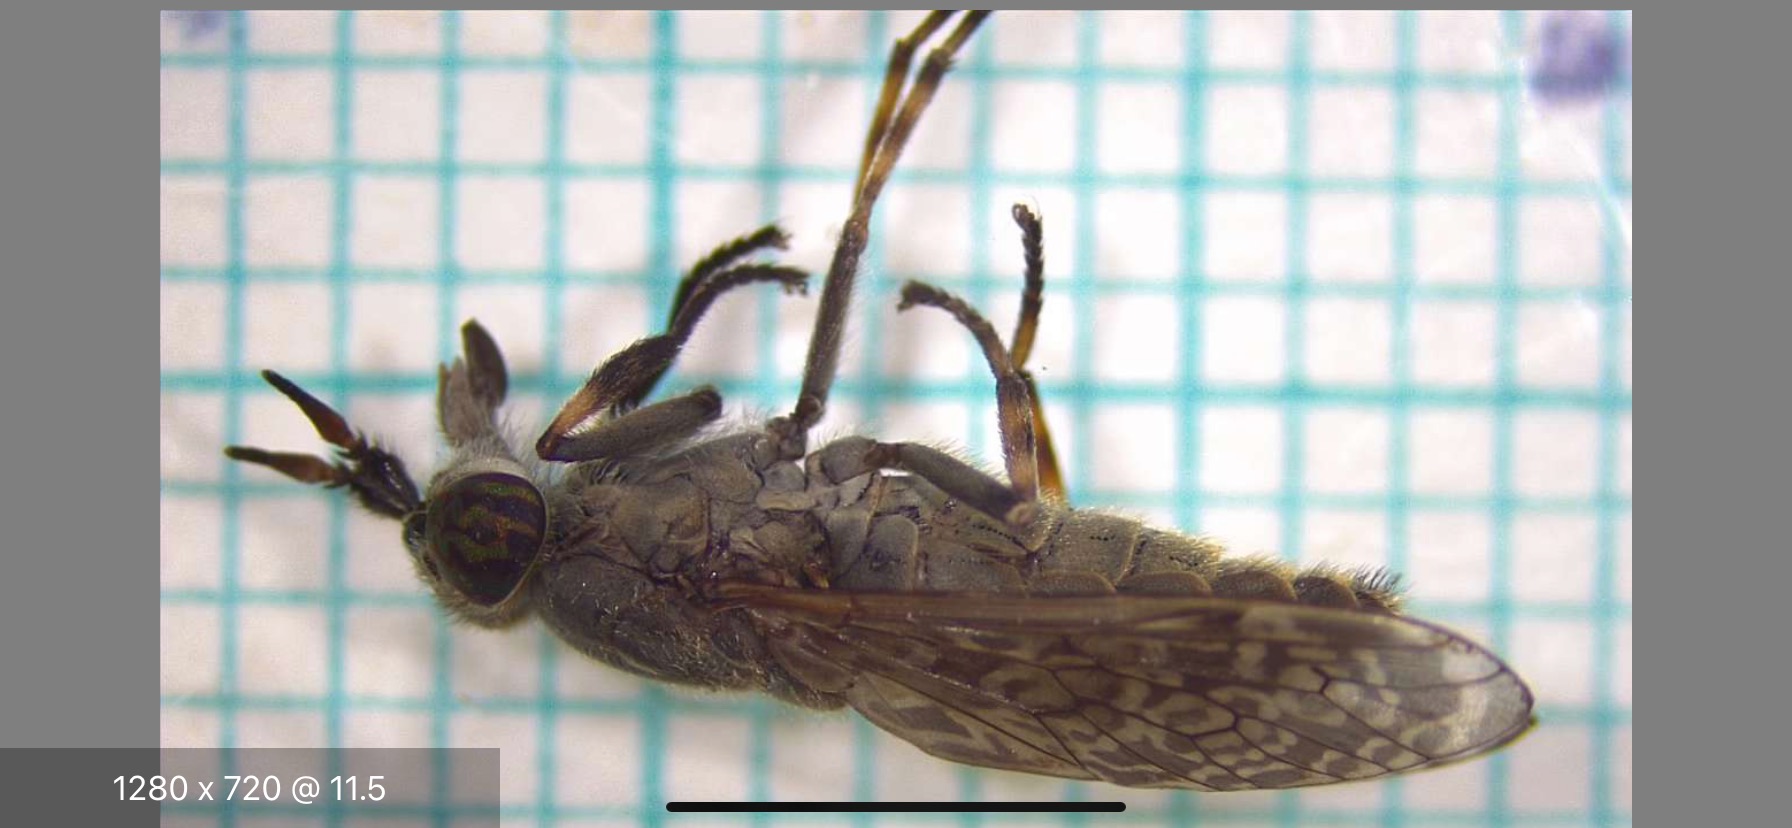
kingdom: Animalia
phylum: Arthropoda
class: Insecta
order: Diptera
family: Tabanidae
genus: Haematopota
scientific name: Haematopota pluvialis
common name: Regnklæg
